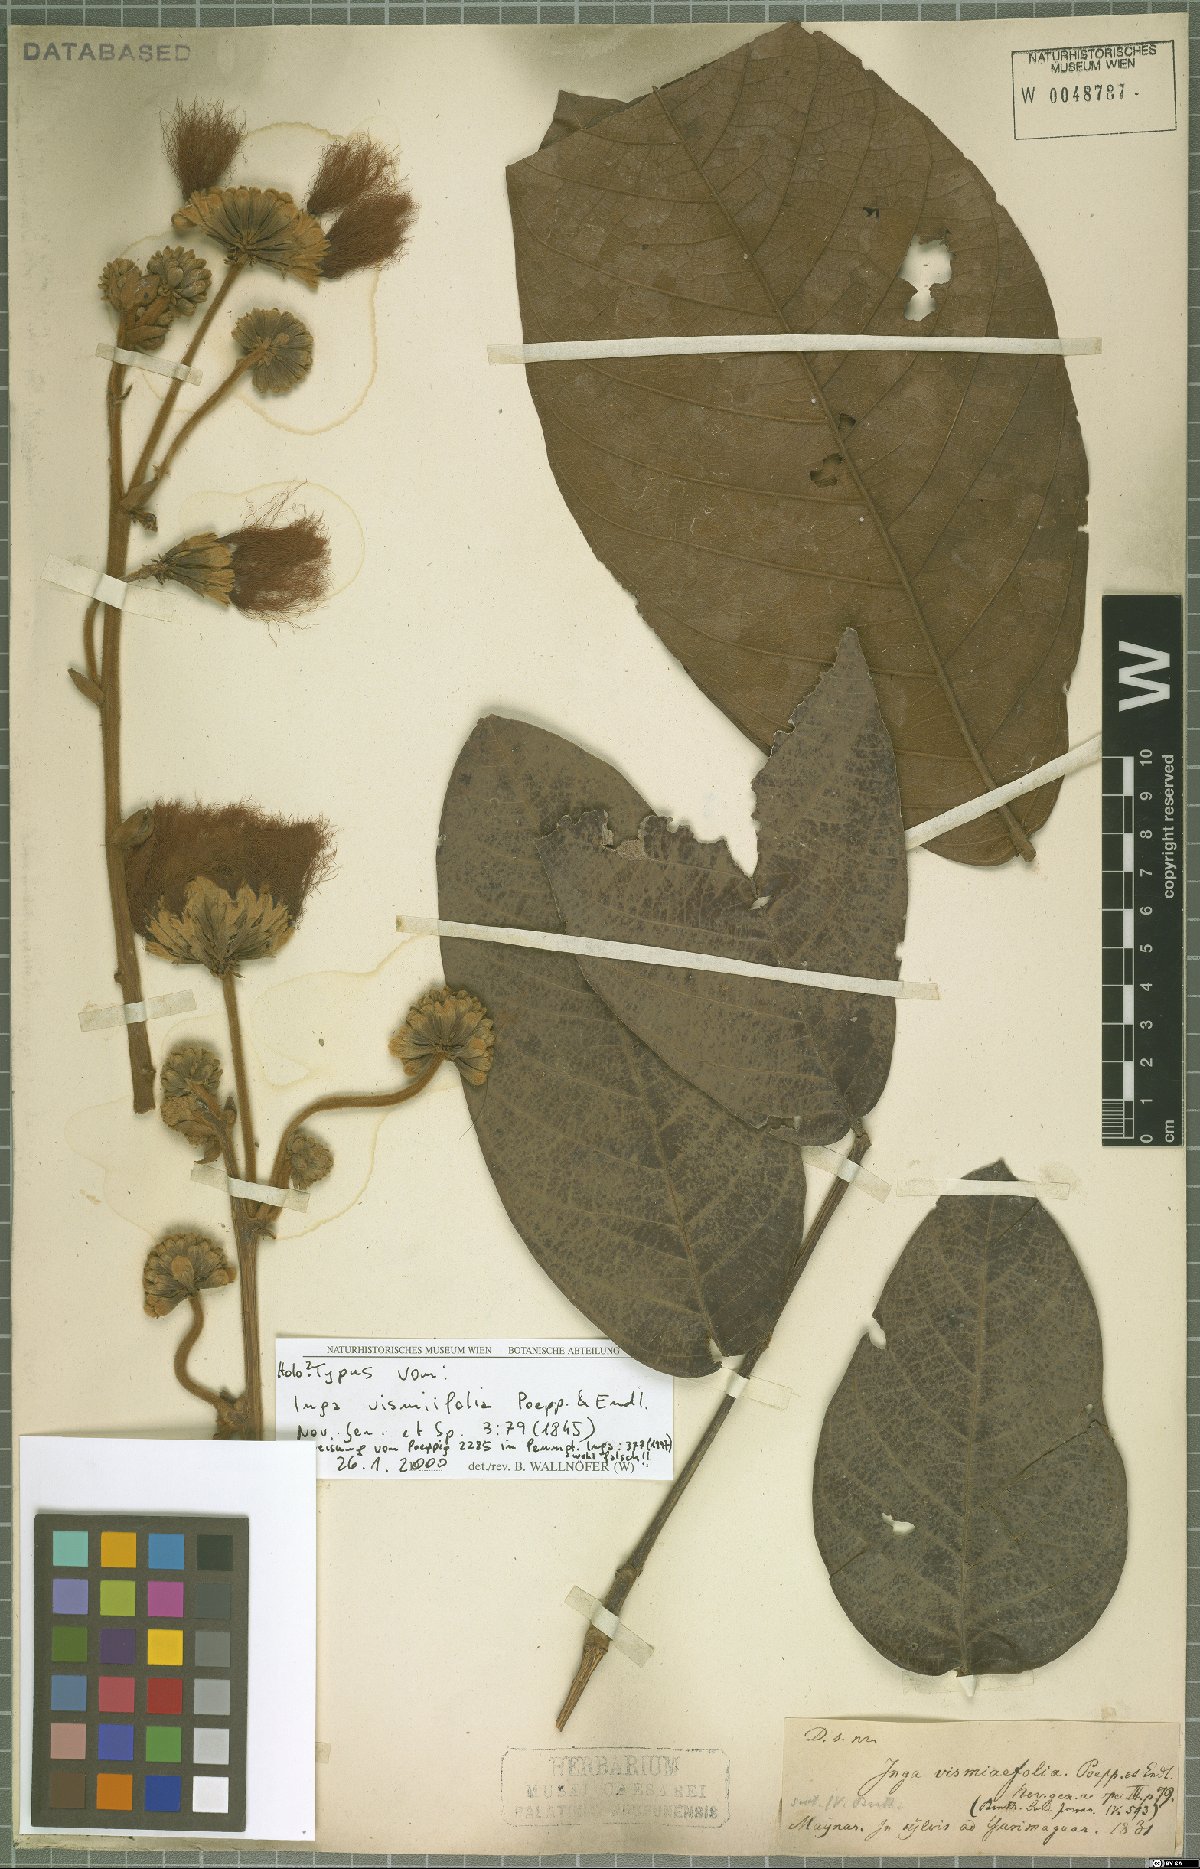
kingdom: Plantae
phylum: Tracheophyta
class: Magnoliopsida
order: Fabales
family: Fabaceae
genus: Inga
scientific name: Inga vismiifolia
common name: Howler monkey inga
